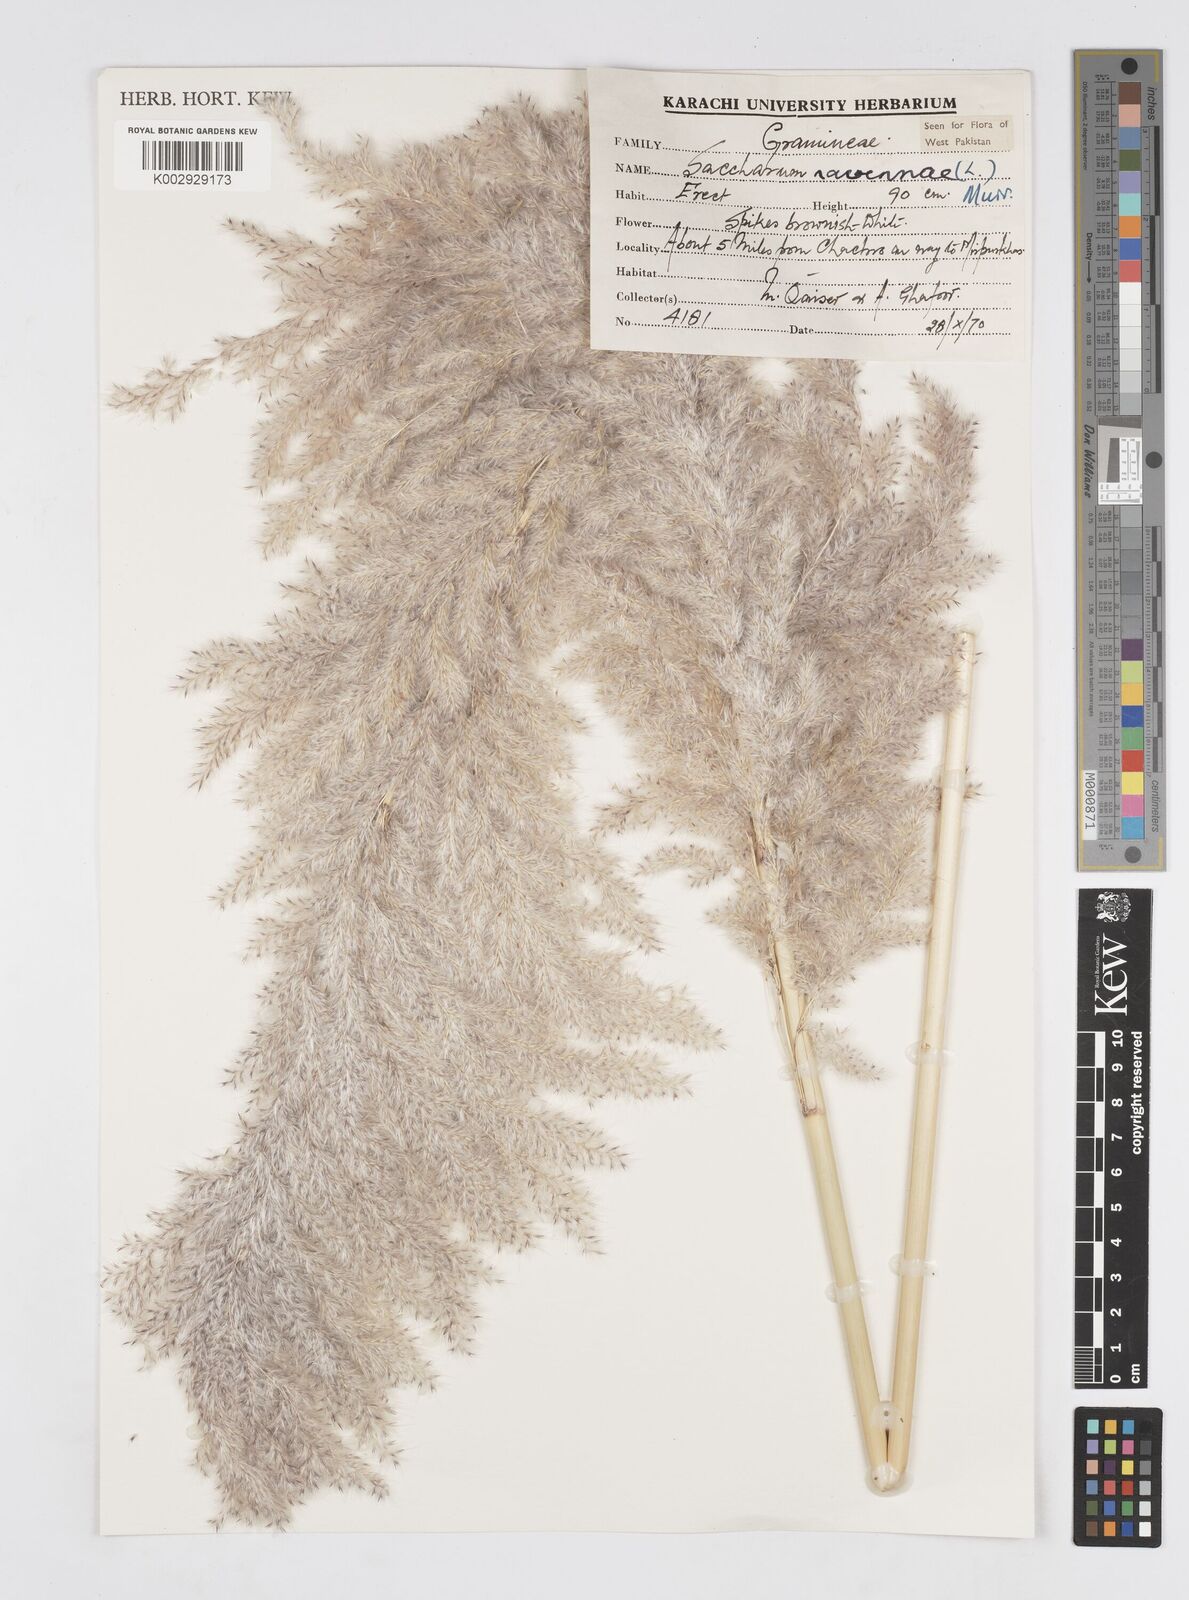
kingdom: Plantae
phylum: Tracheophyta
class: Liliopsida
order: Poales
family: Poaceae
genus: Tripidium
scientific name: Tripidium ravennae
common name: Ravenna grass
